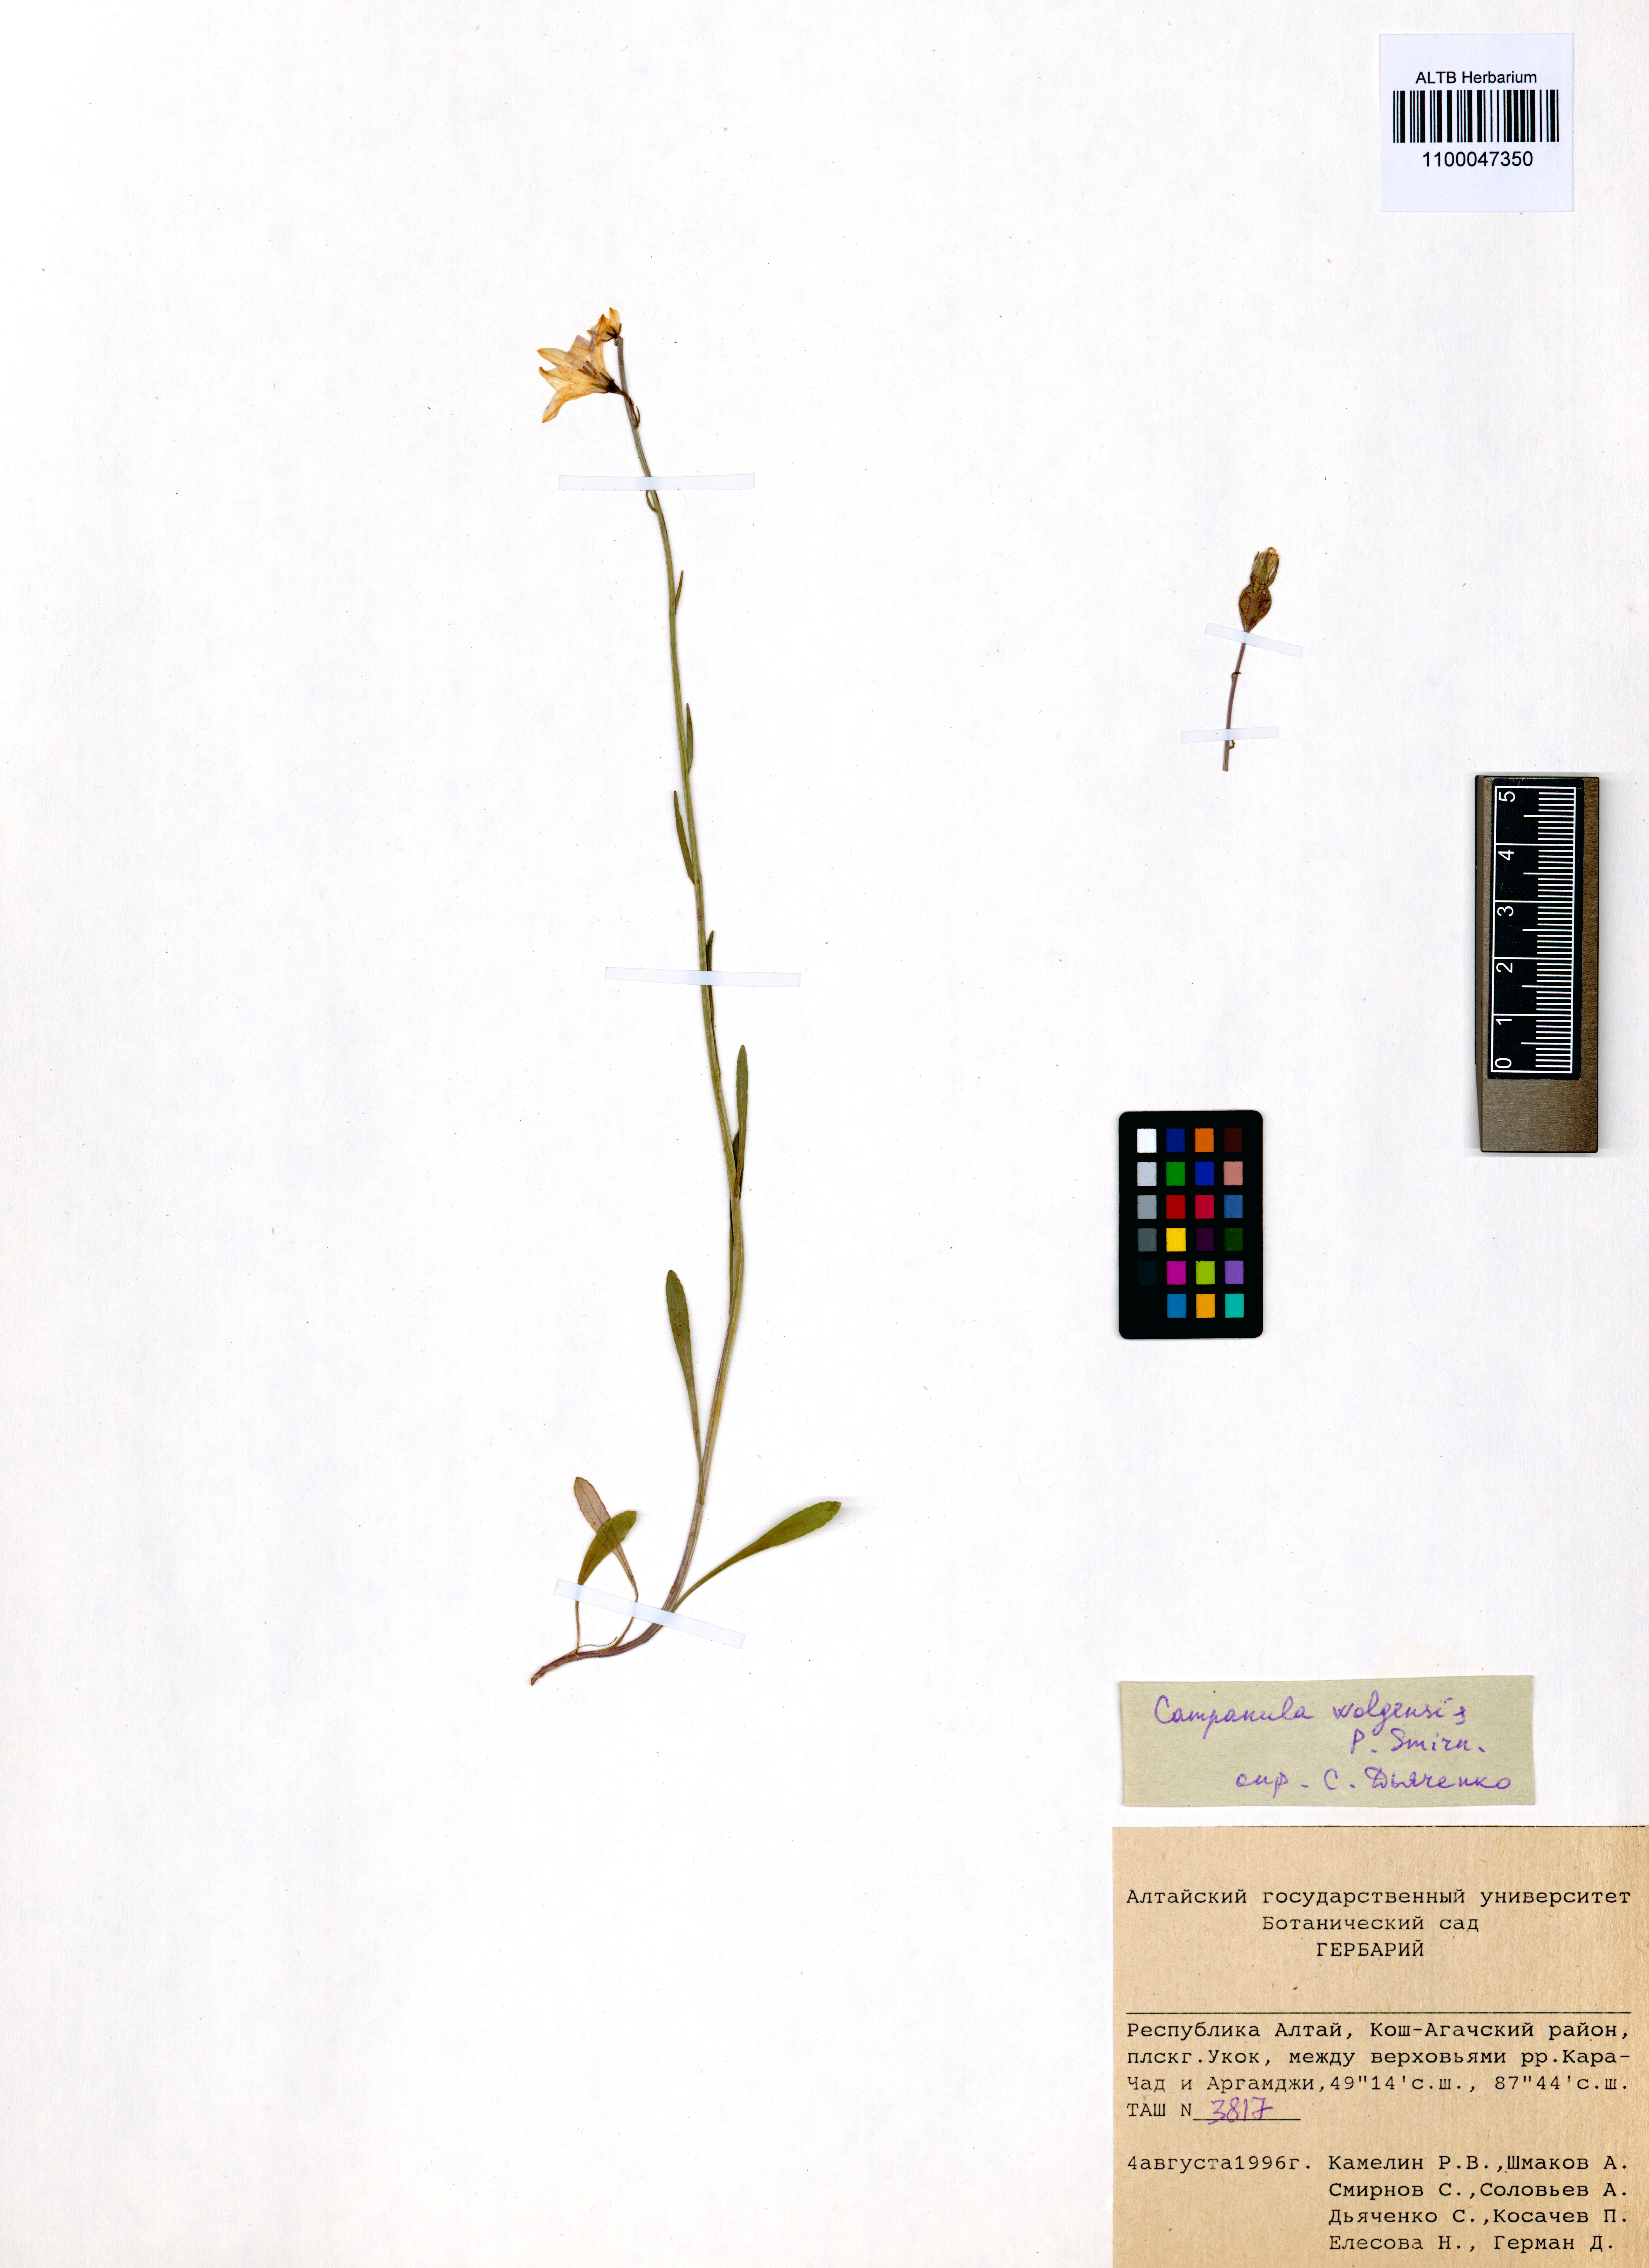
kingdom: Plantae
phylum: Tracheophyta
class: Magnoliopsida
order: Asterales
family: Campanulaceae
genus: Campanula
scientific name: Campanula stevenii
